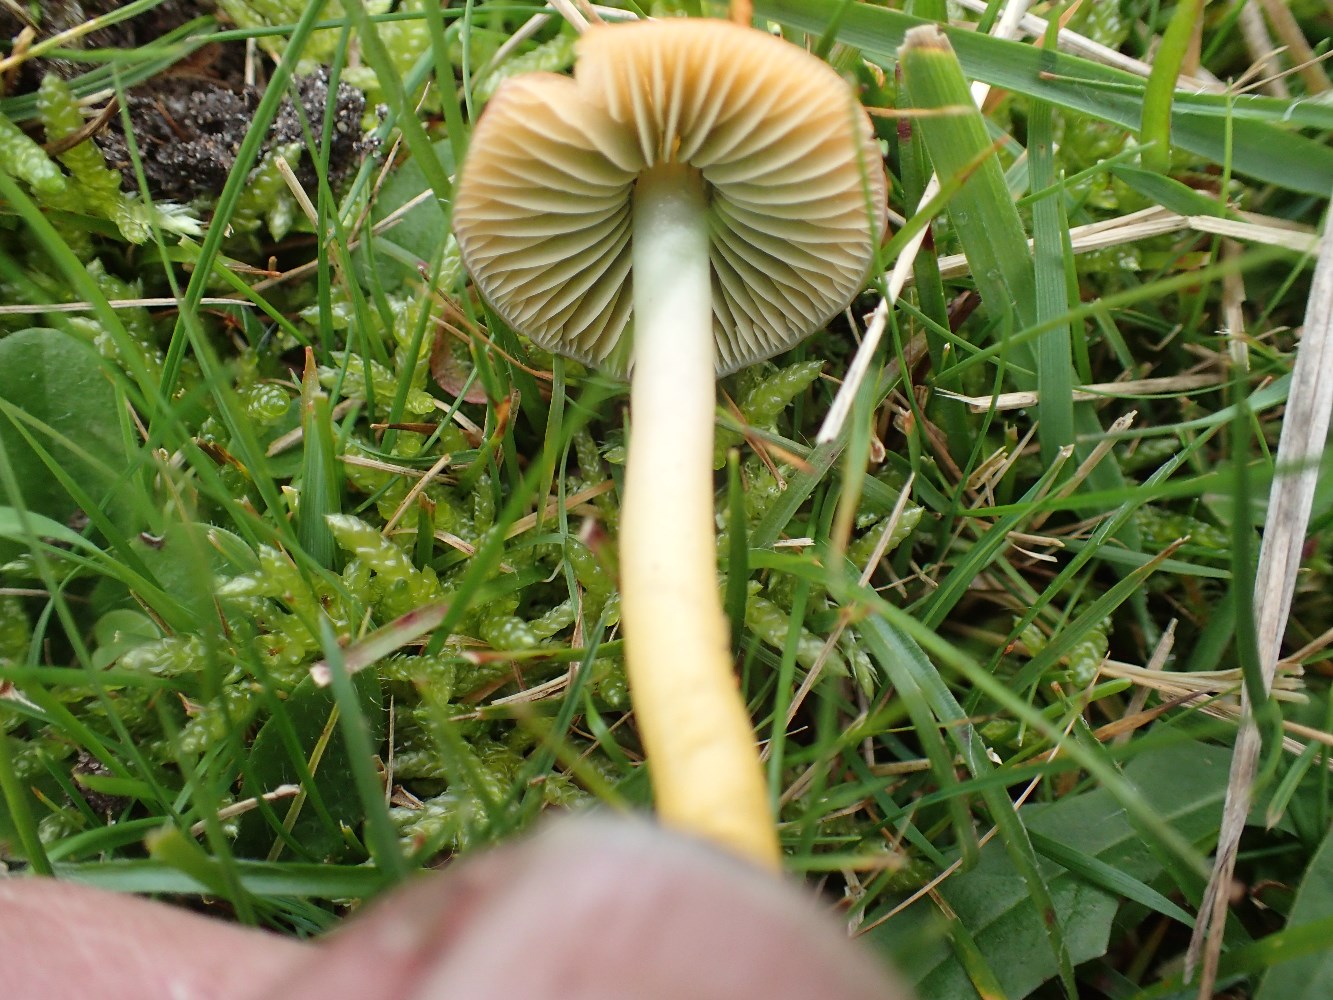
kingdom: Fungi
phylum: Basidiomycota
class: Agaricomycetes
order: Agaricales
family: Hygrophoraceae
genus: Gliophorus
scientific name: Gliophorus psittacinus
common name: papegøje-vokshat
